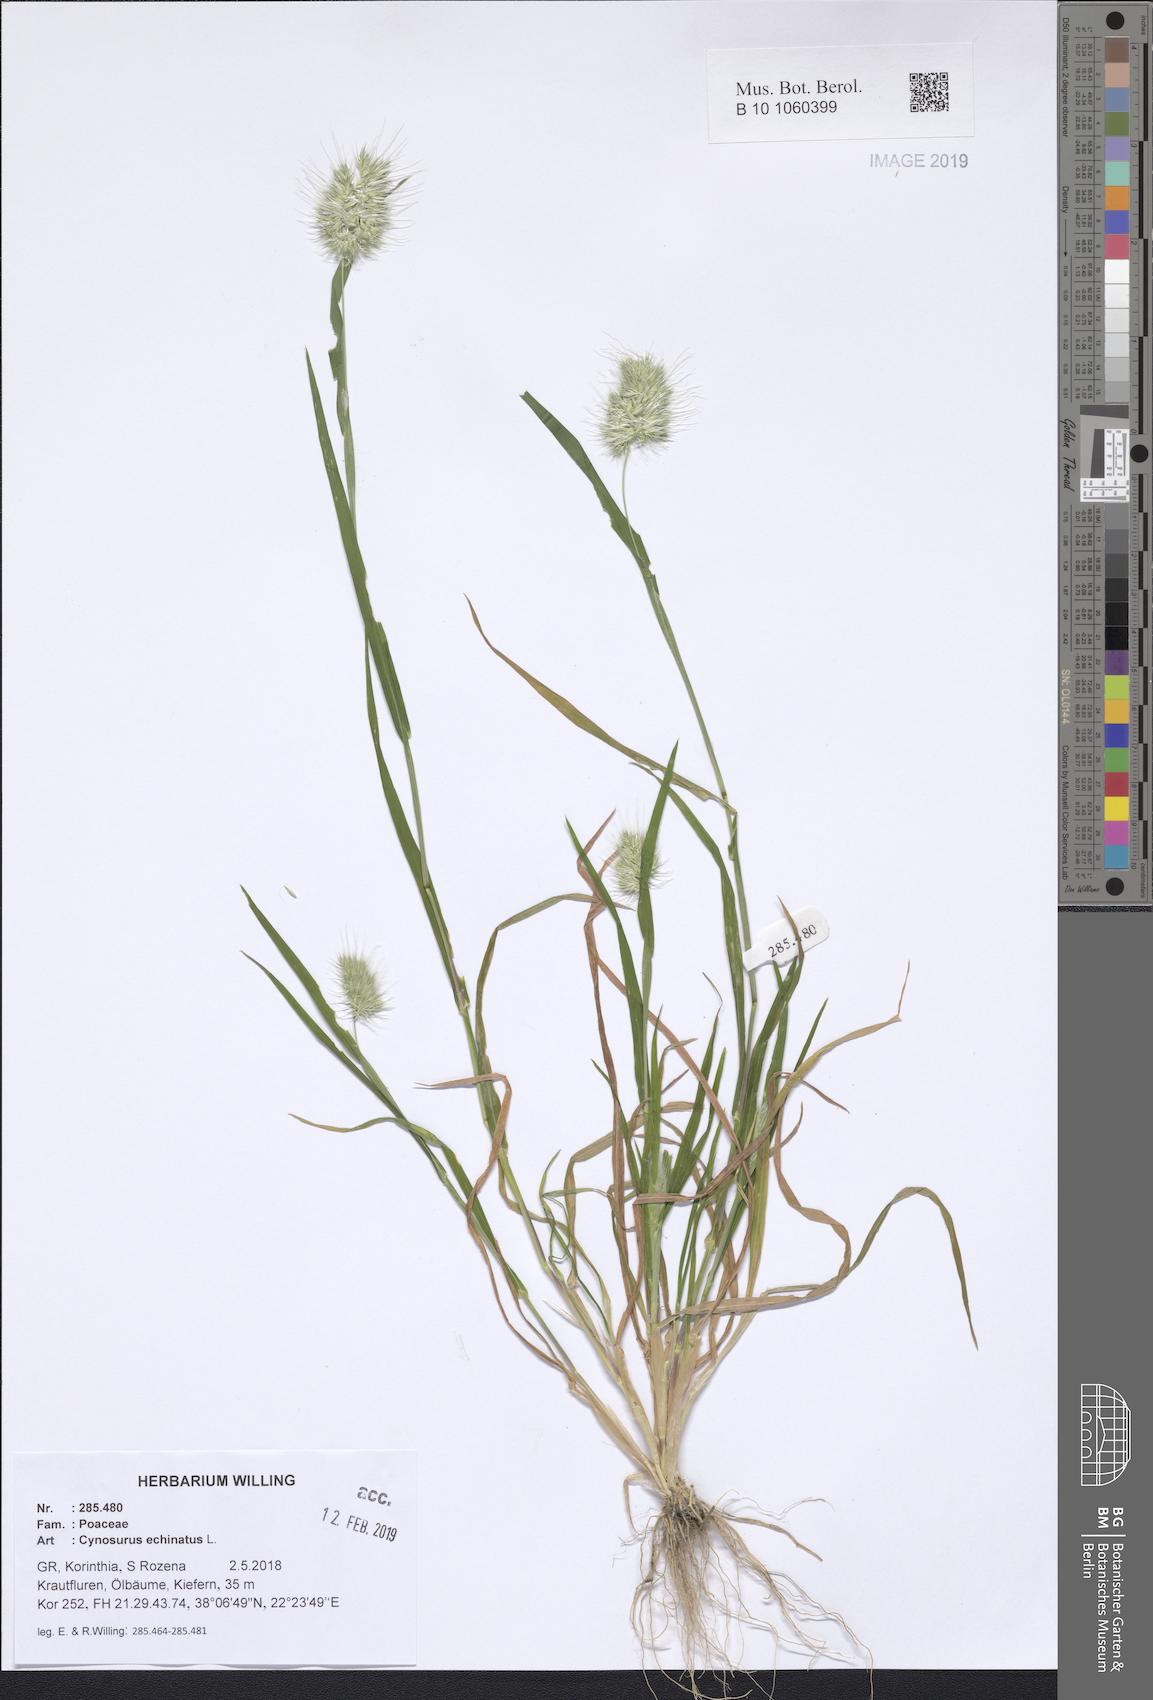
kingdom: Plantae
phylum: Tracheophyta
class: Liliopsida
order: Poales
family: Poaceae
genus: Cynosurus
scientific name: Cynosurus echinatus
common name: Rough dog's-tail
